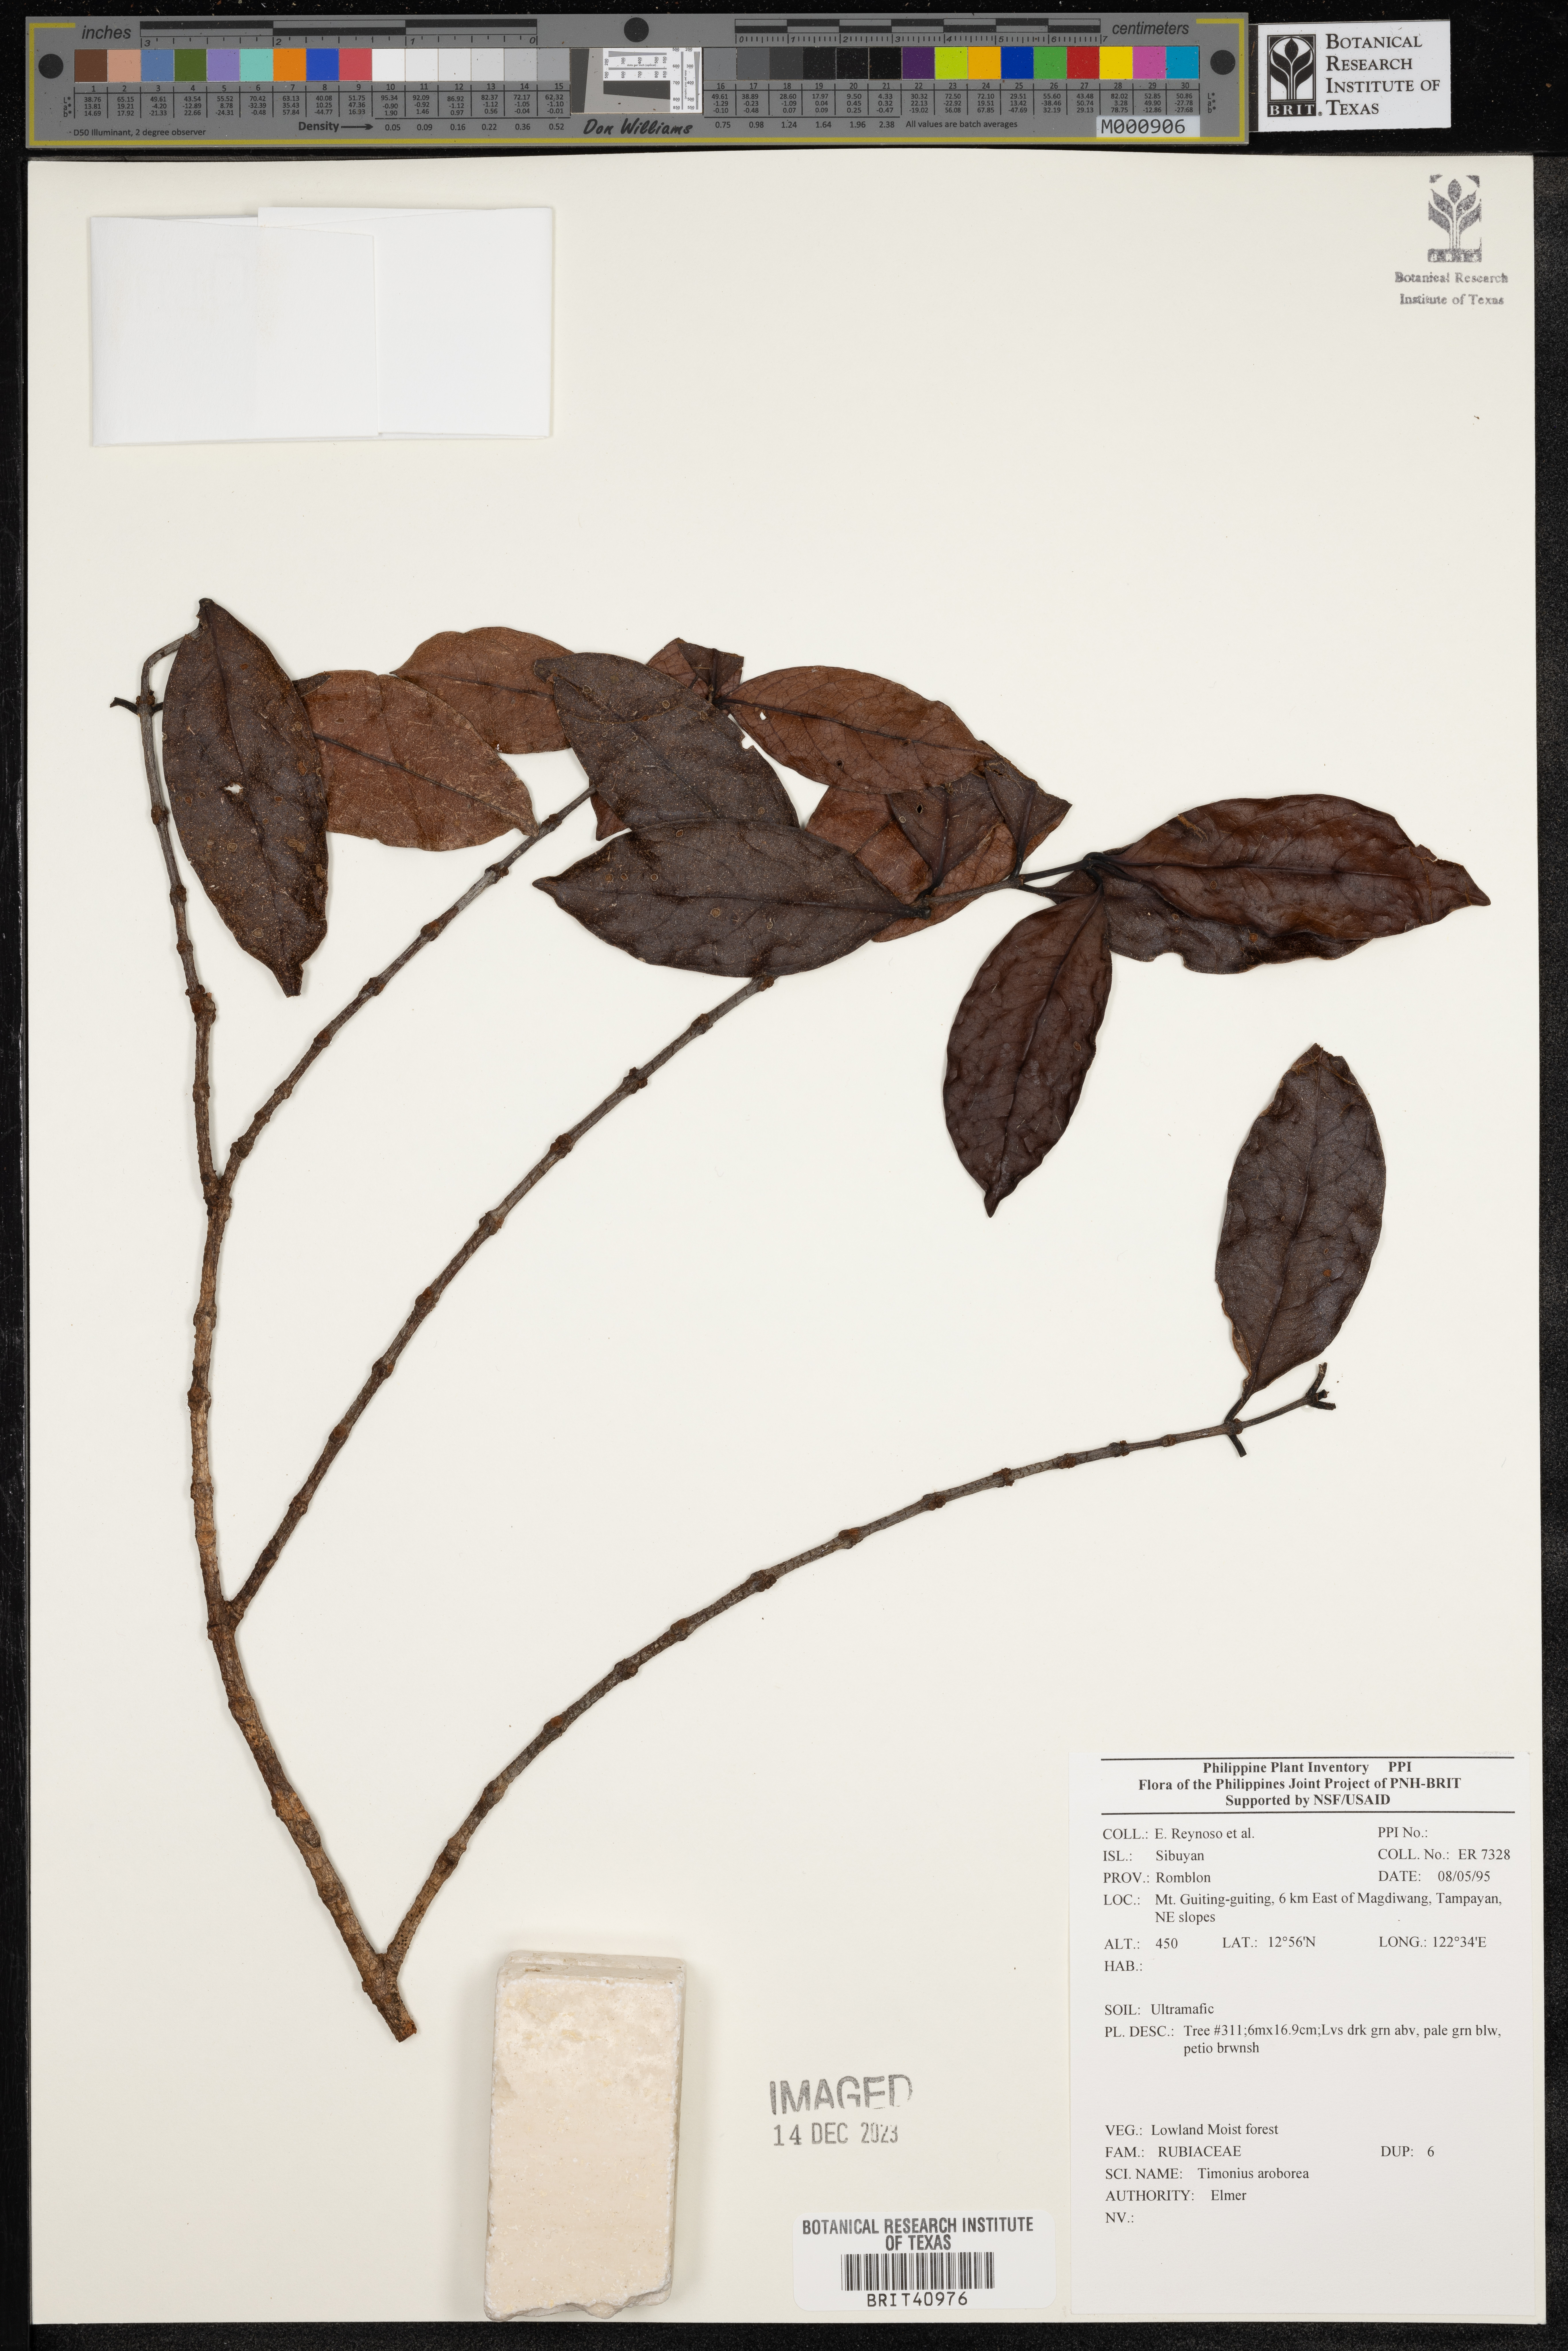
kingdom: Plantae
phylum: Tracheophyta
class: Magnoliopsida
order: Gentianales
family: Rubiaceae
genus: Timonius
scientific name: Timonius
